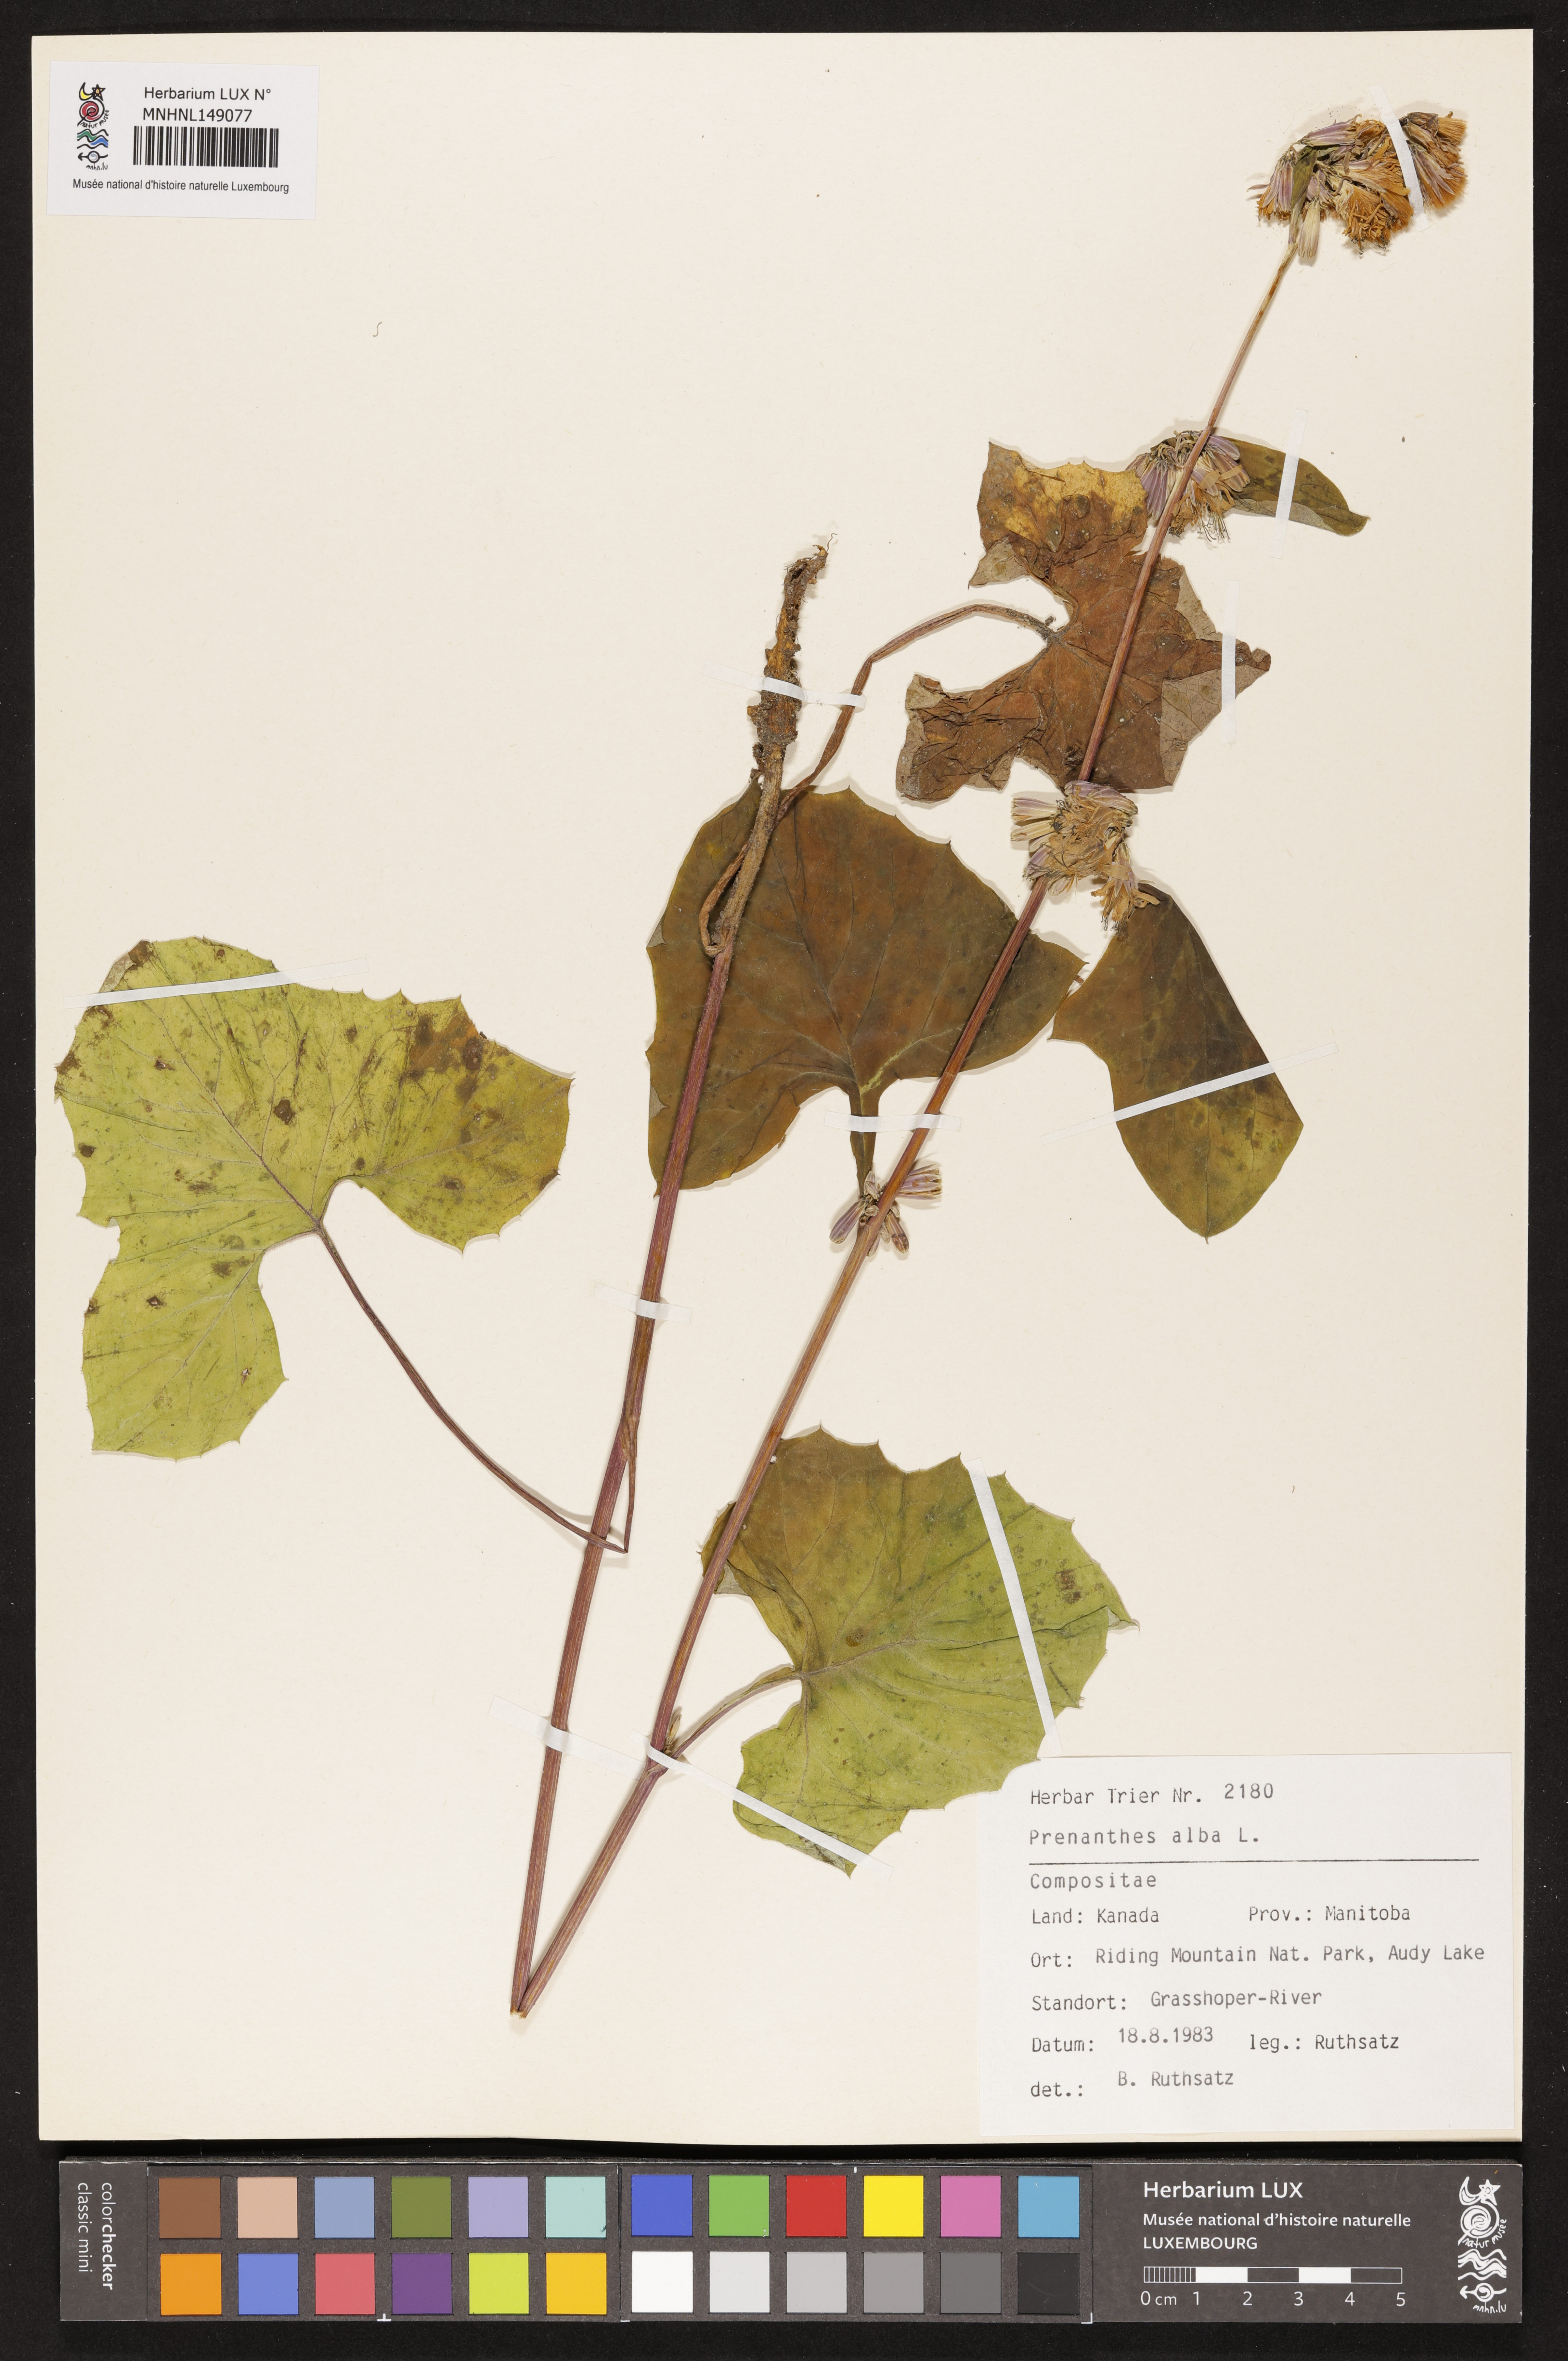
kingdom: Plantae
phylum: Tracheophyta
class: Magnoliopsida
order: Asterales
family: Asteraceae
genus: Nabalus
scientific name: Nabalus albus
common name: White rattlesnakeroot
